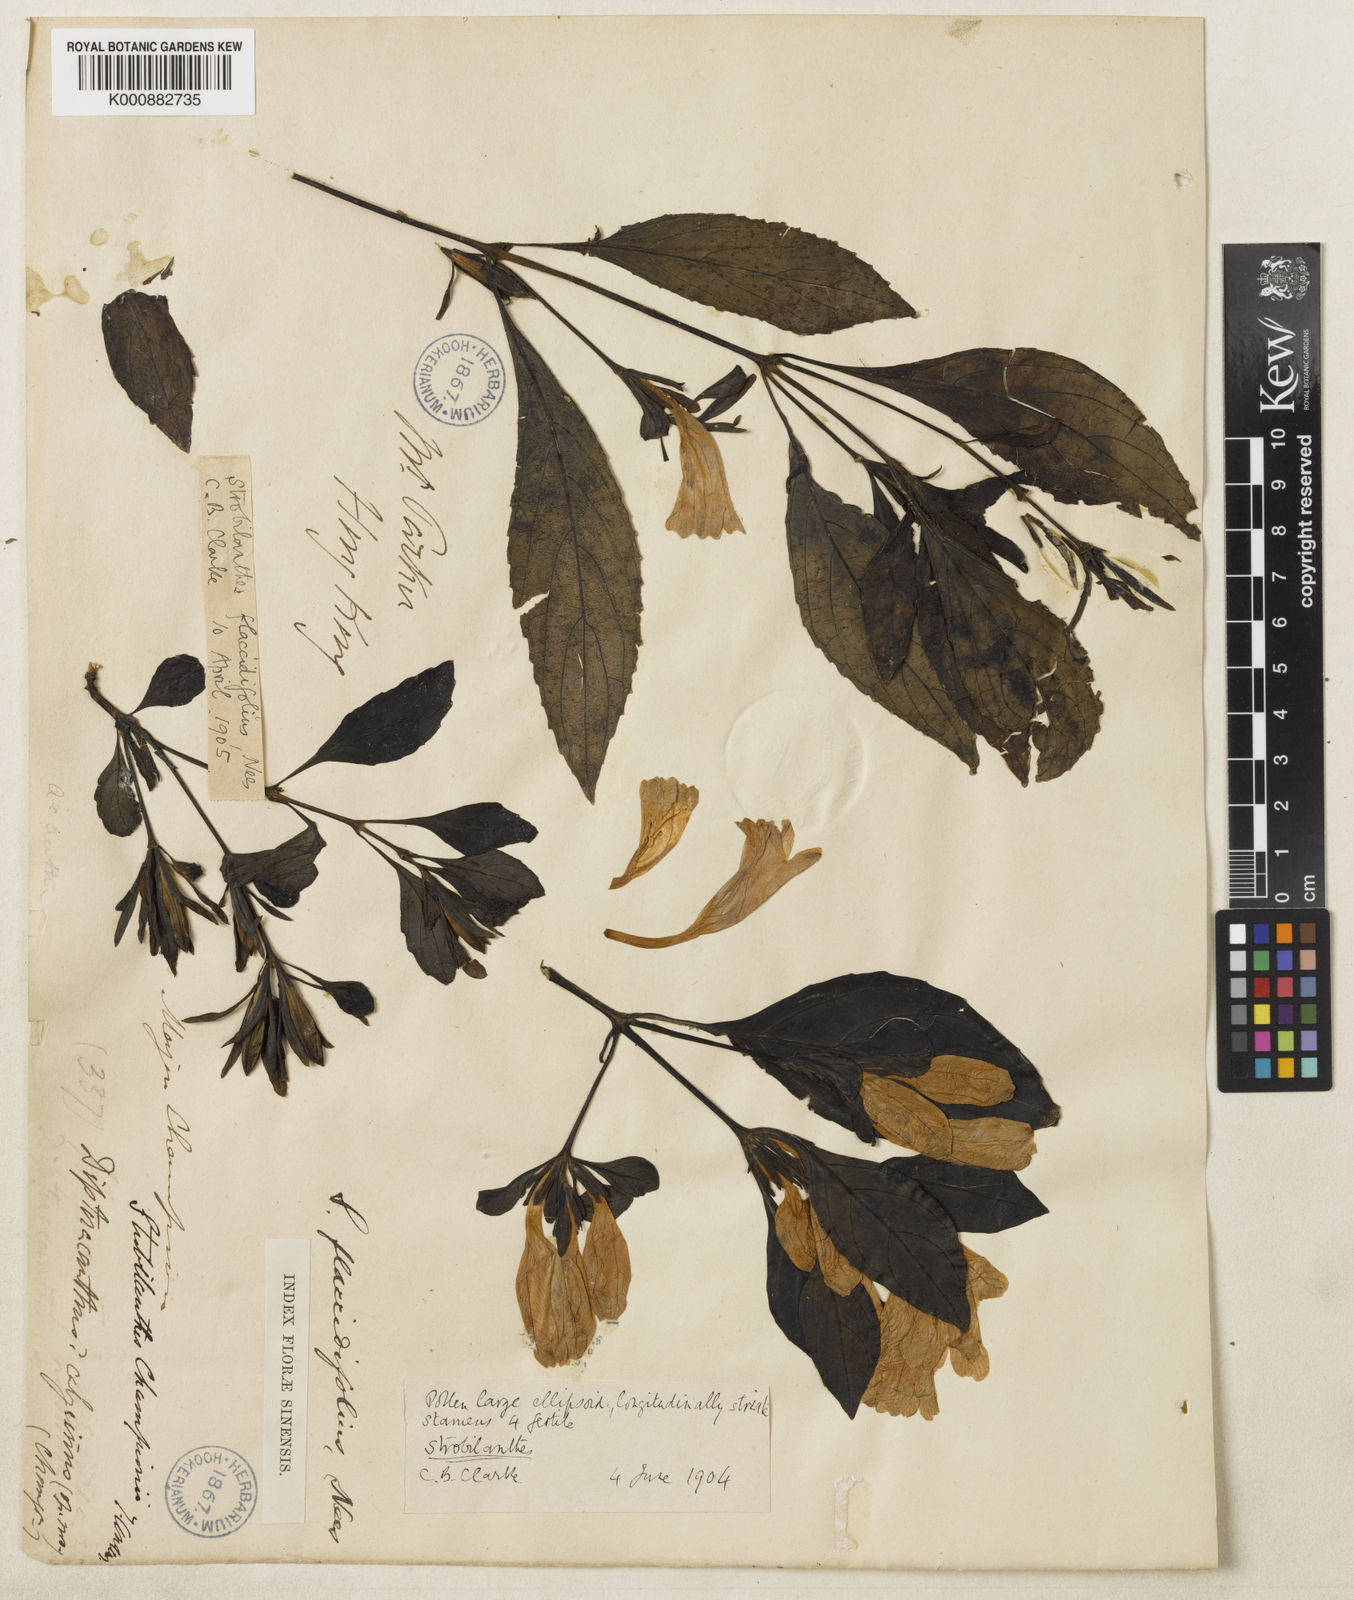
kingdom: Plantae
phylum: Tracheophyta
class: Magnoliopsida
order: Lamiales
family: Acanthaceae
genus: Strobilanthes
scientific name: Strobilanthes cusia
